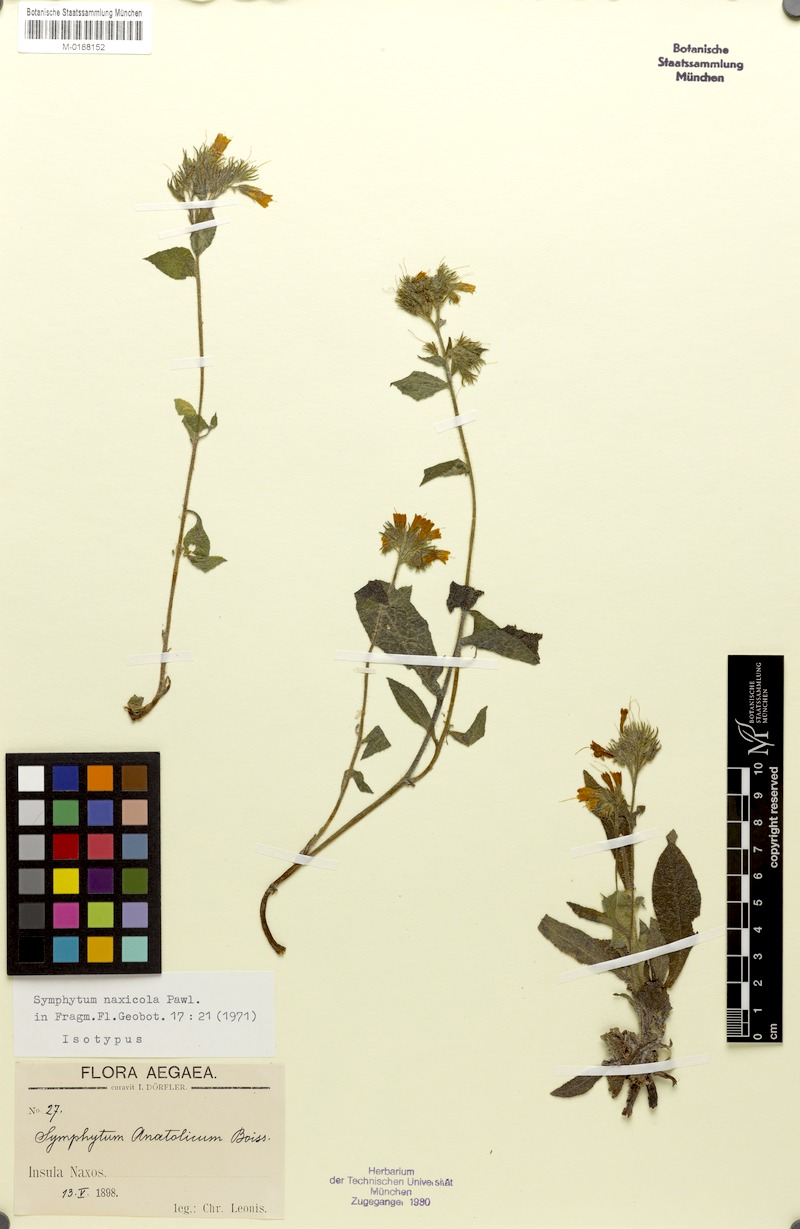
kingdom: Plantae
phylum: Tracheophyta
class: Magnoliopsida
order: Boraginales
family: Boraginaceae
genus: Symphytum
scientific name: Symphytum davisii
